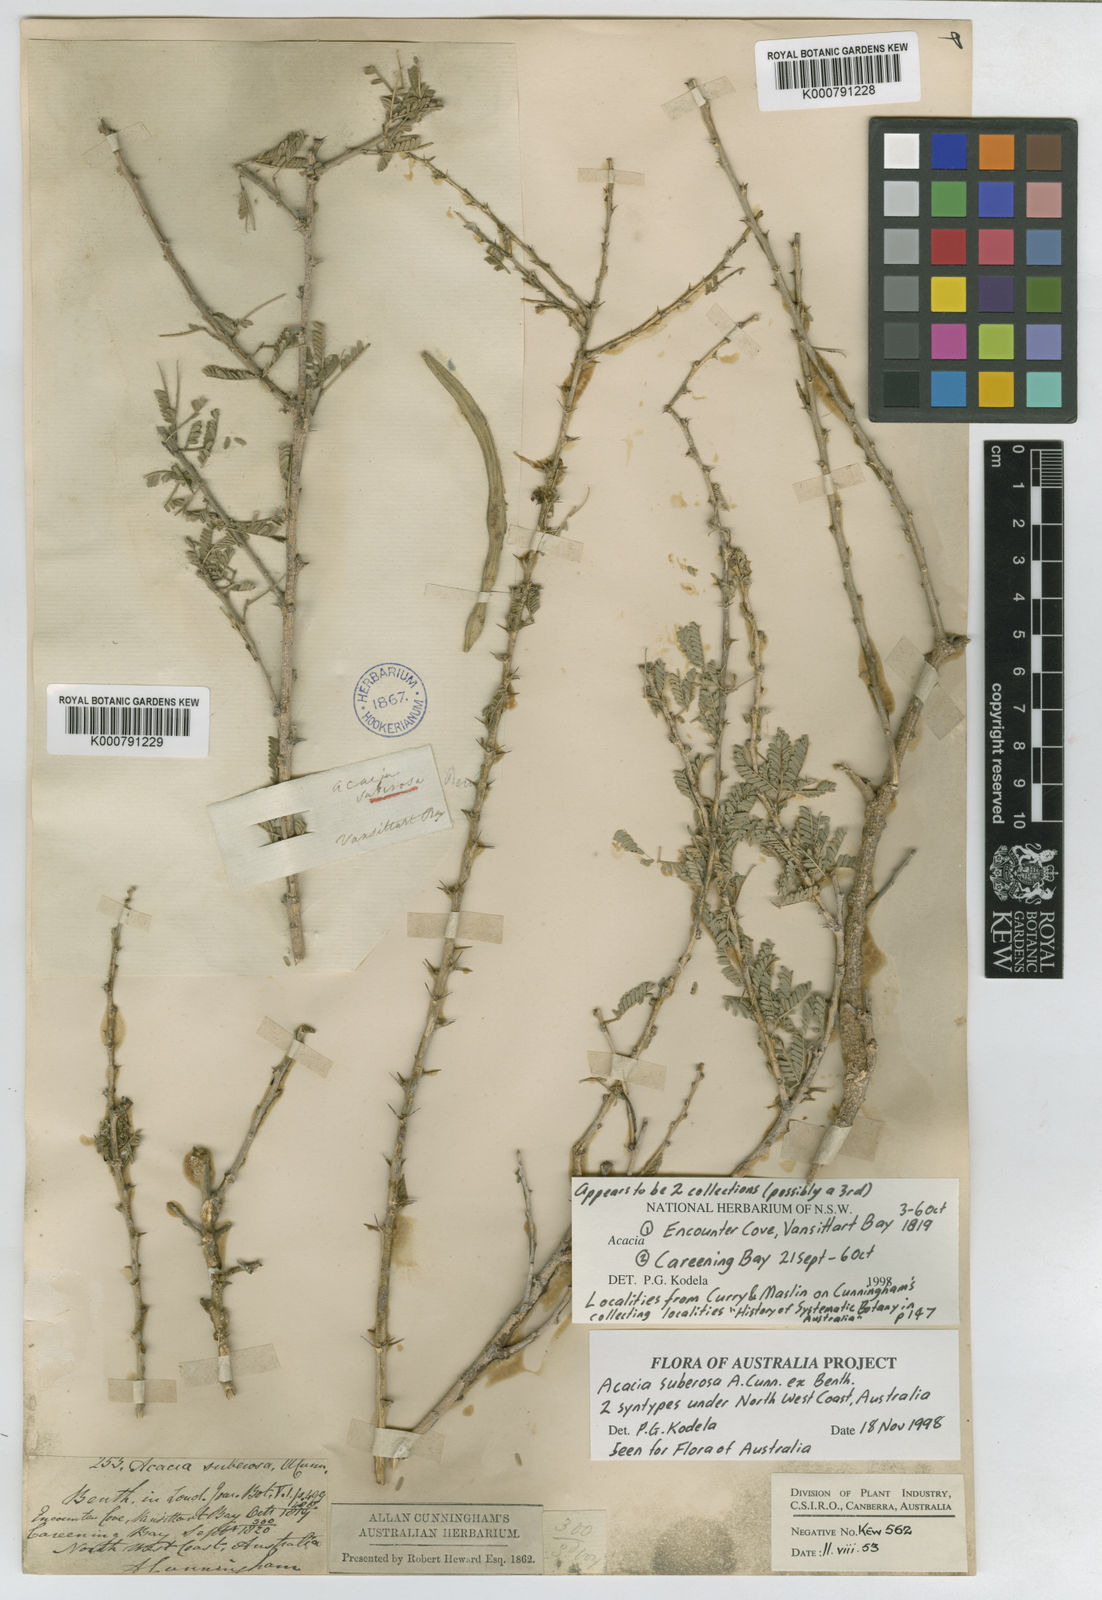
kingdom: Plantae
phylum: Tracheophyta
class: Magnoliopsida
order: Fabales
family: Fabaceae
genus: Vachellia
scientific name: Vachellia suberosa
